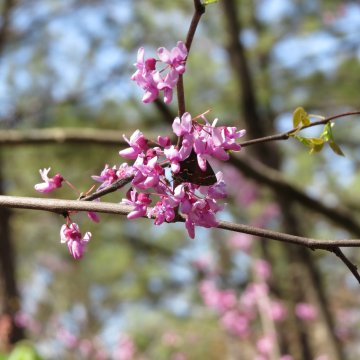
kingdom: Animalia
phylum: Arthropoda
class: Insecta
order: Lepidoptera
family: Lycaenidae
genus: Mitoura
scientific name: Mitoura gryneus
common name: Juniper Hairstreak
